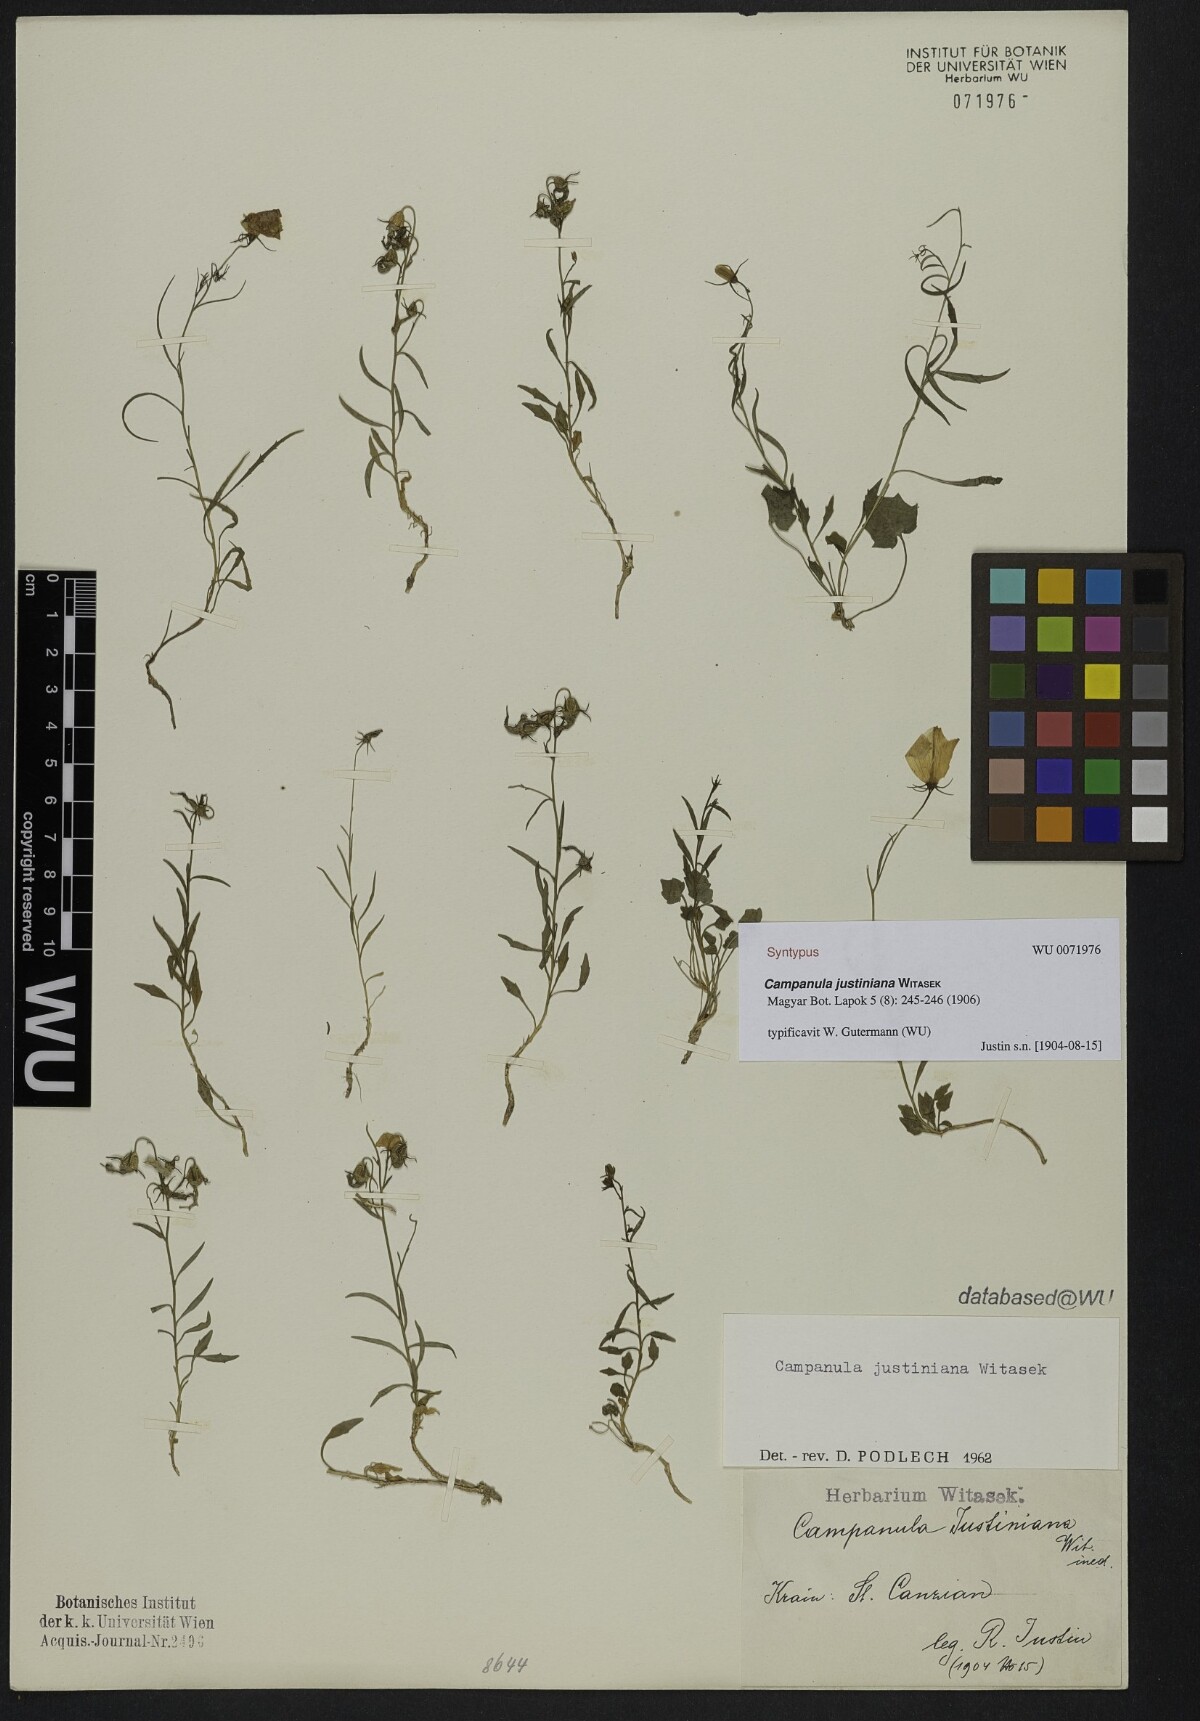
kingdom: Plantae
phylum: Tracheophyta
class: Magnoliopsida
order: Asterales
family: Campanulaceae
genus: Campanula
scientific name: Campanula justiniana
